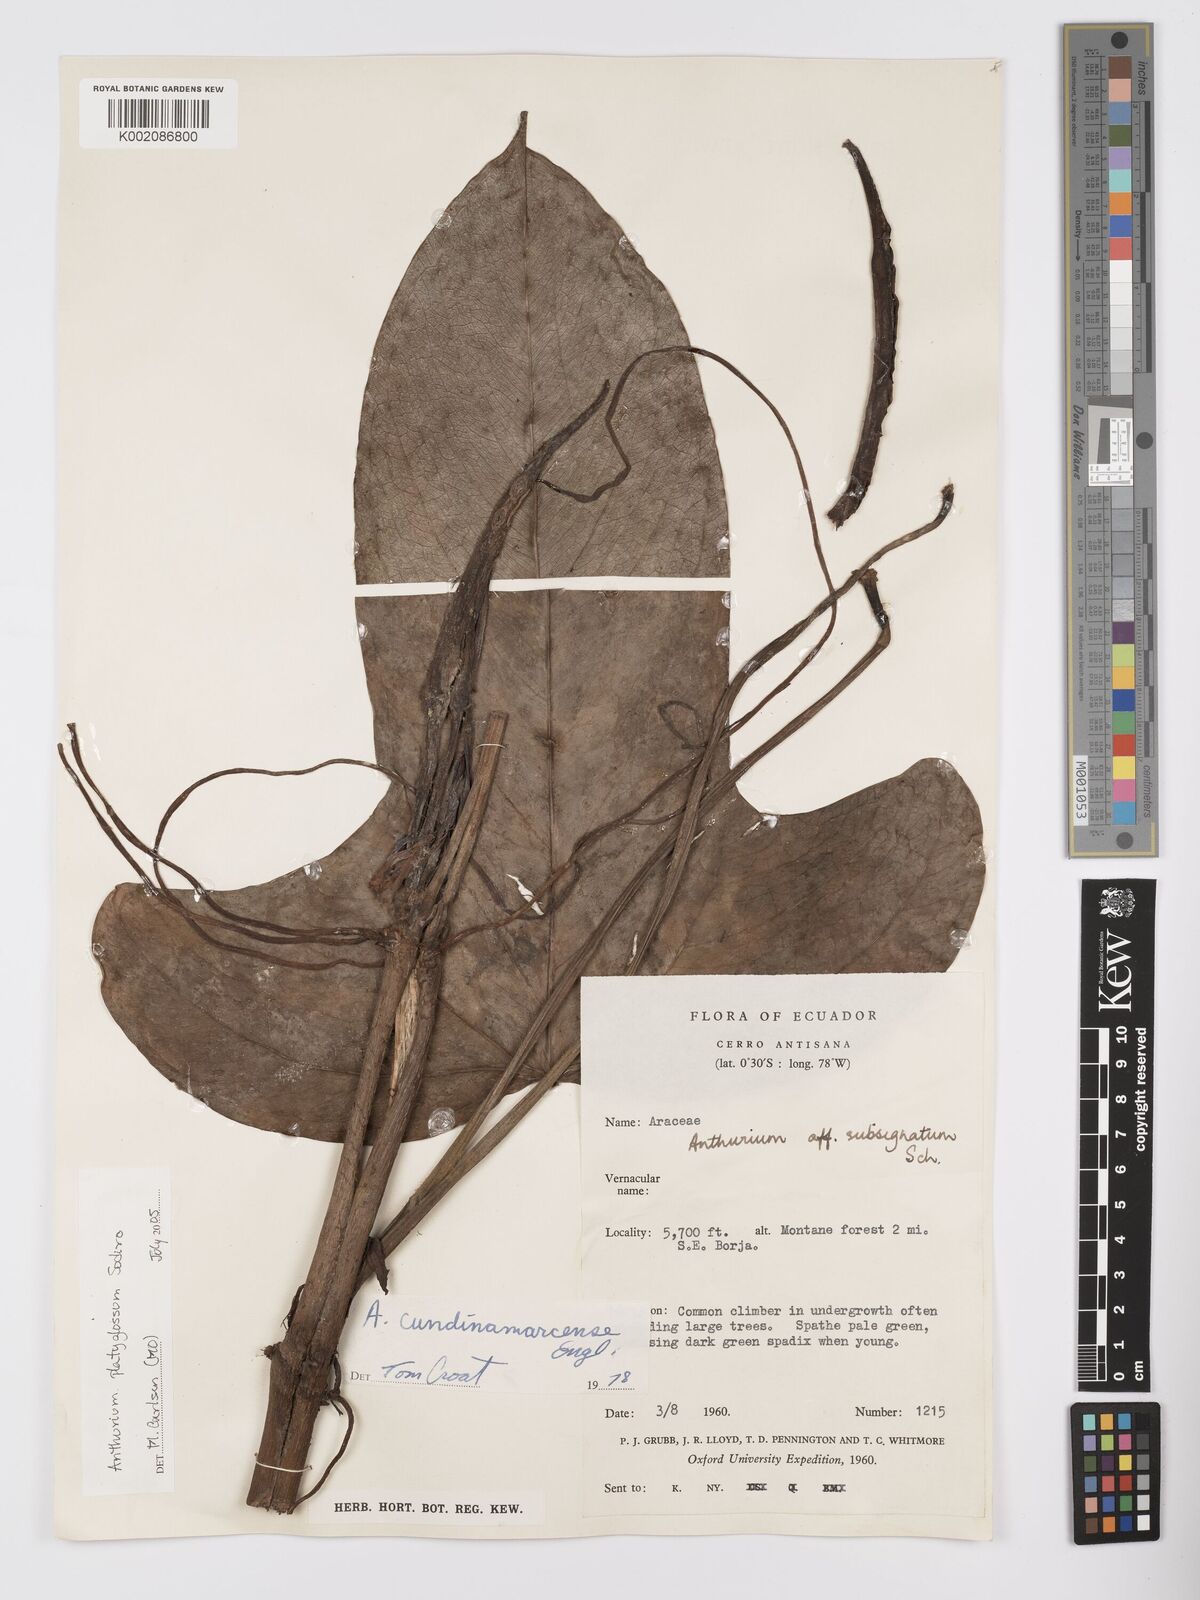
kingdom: Plantae
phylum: Tracheophyta
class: Liliopsida
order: Alismatales
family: Araceae
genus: Anthurium
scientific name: Anthurium platyglossum
